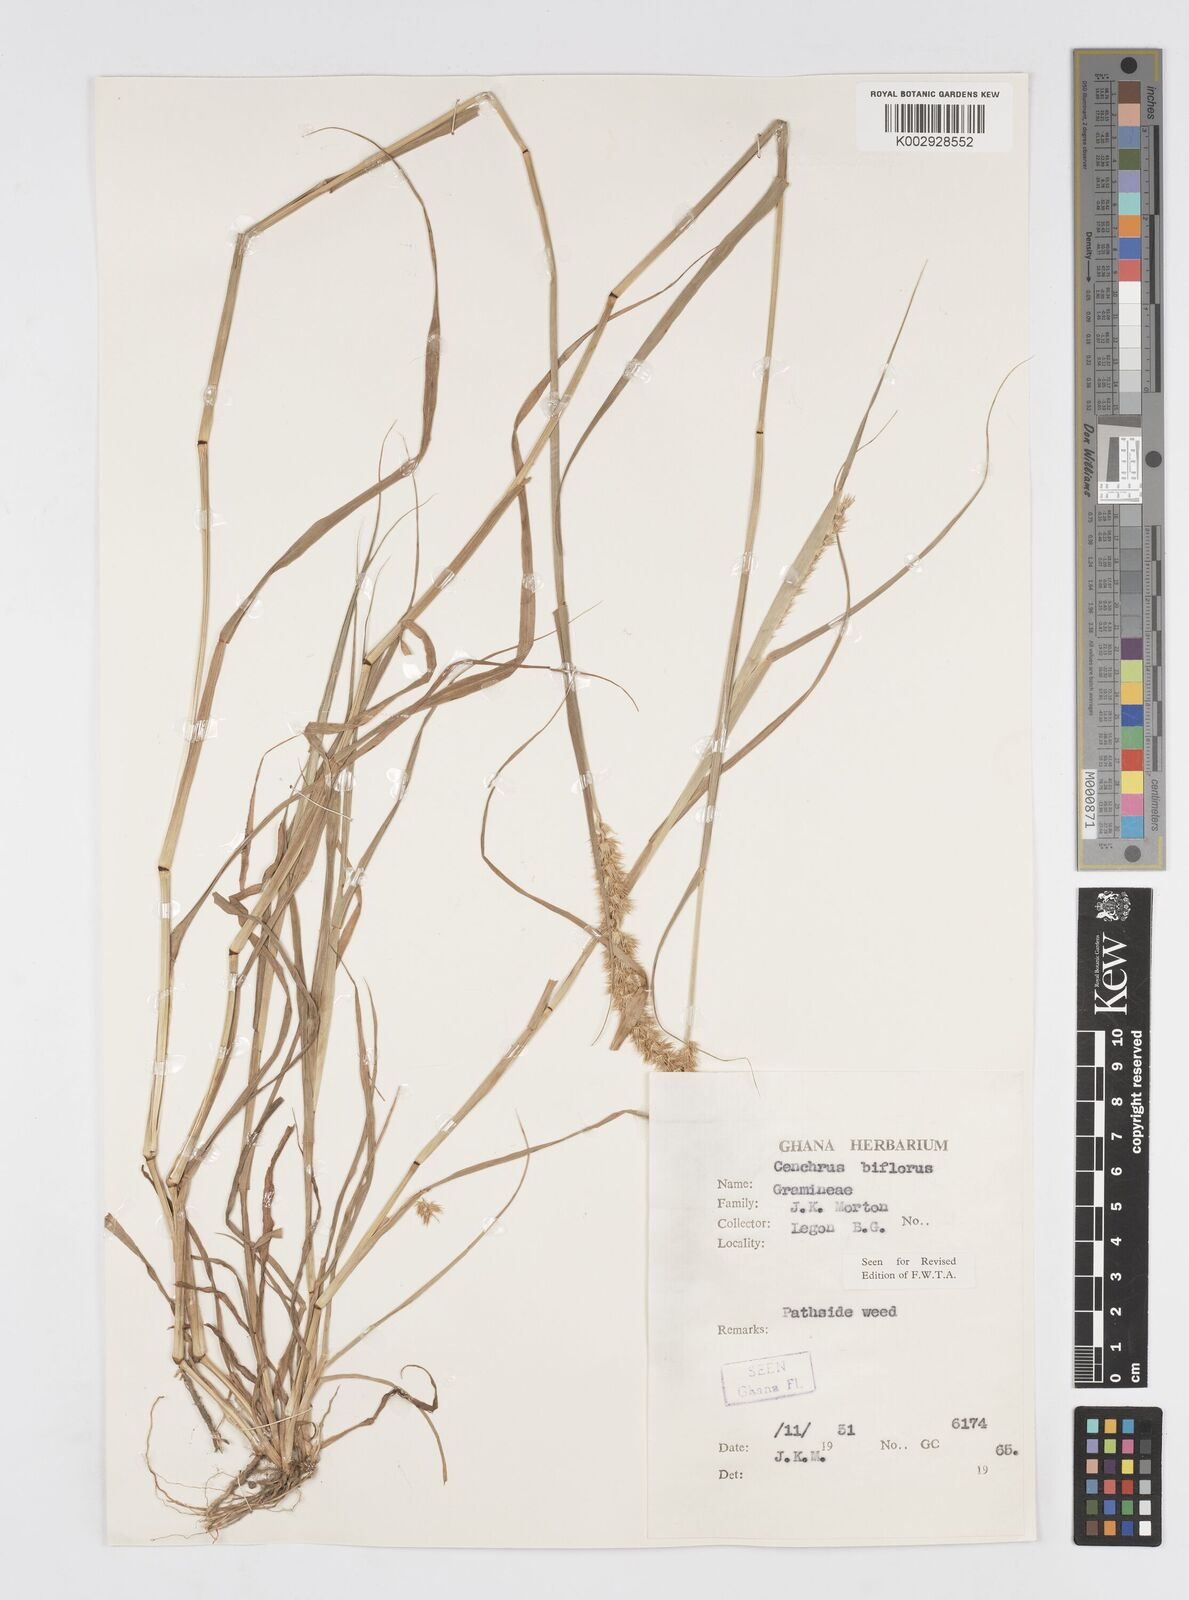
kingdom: Plantae
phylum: Tracheophyta
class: Liliopsida
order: Poales
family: Poaceae
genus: Cenchrus
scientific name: Cenchrus biflorus
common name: Indian sandbur
